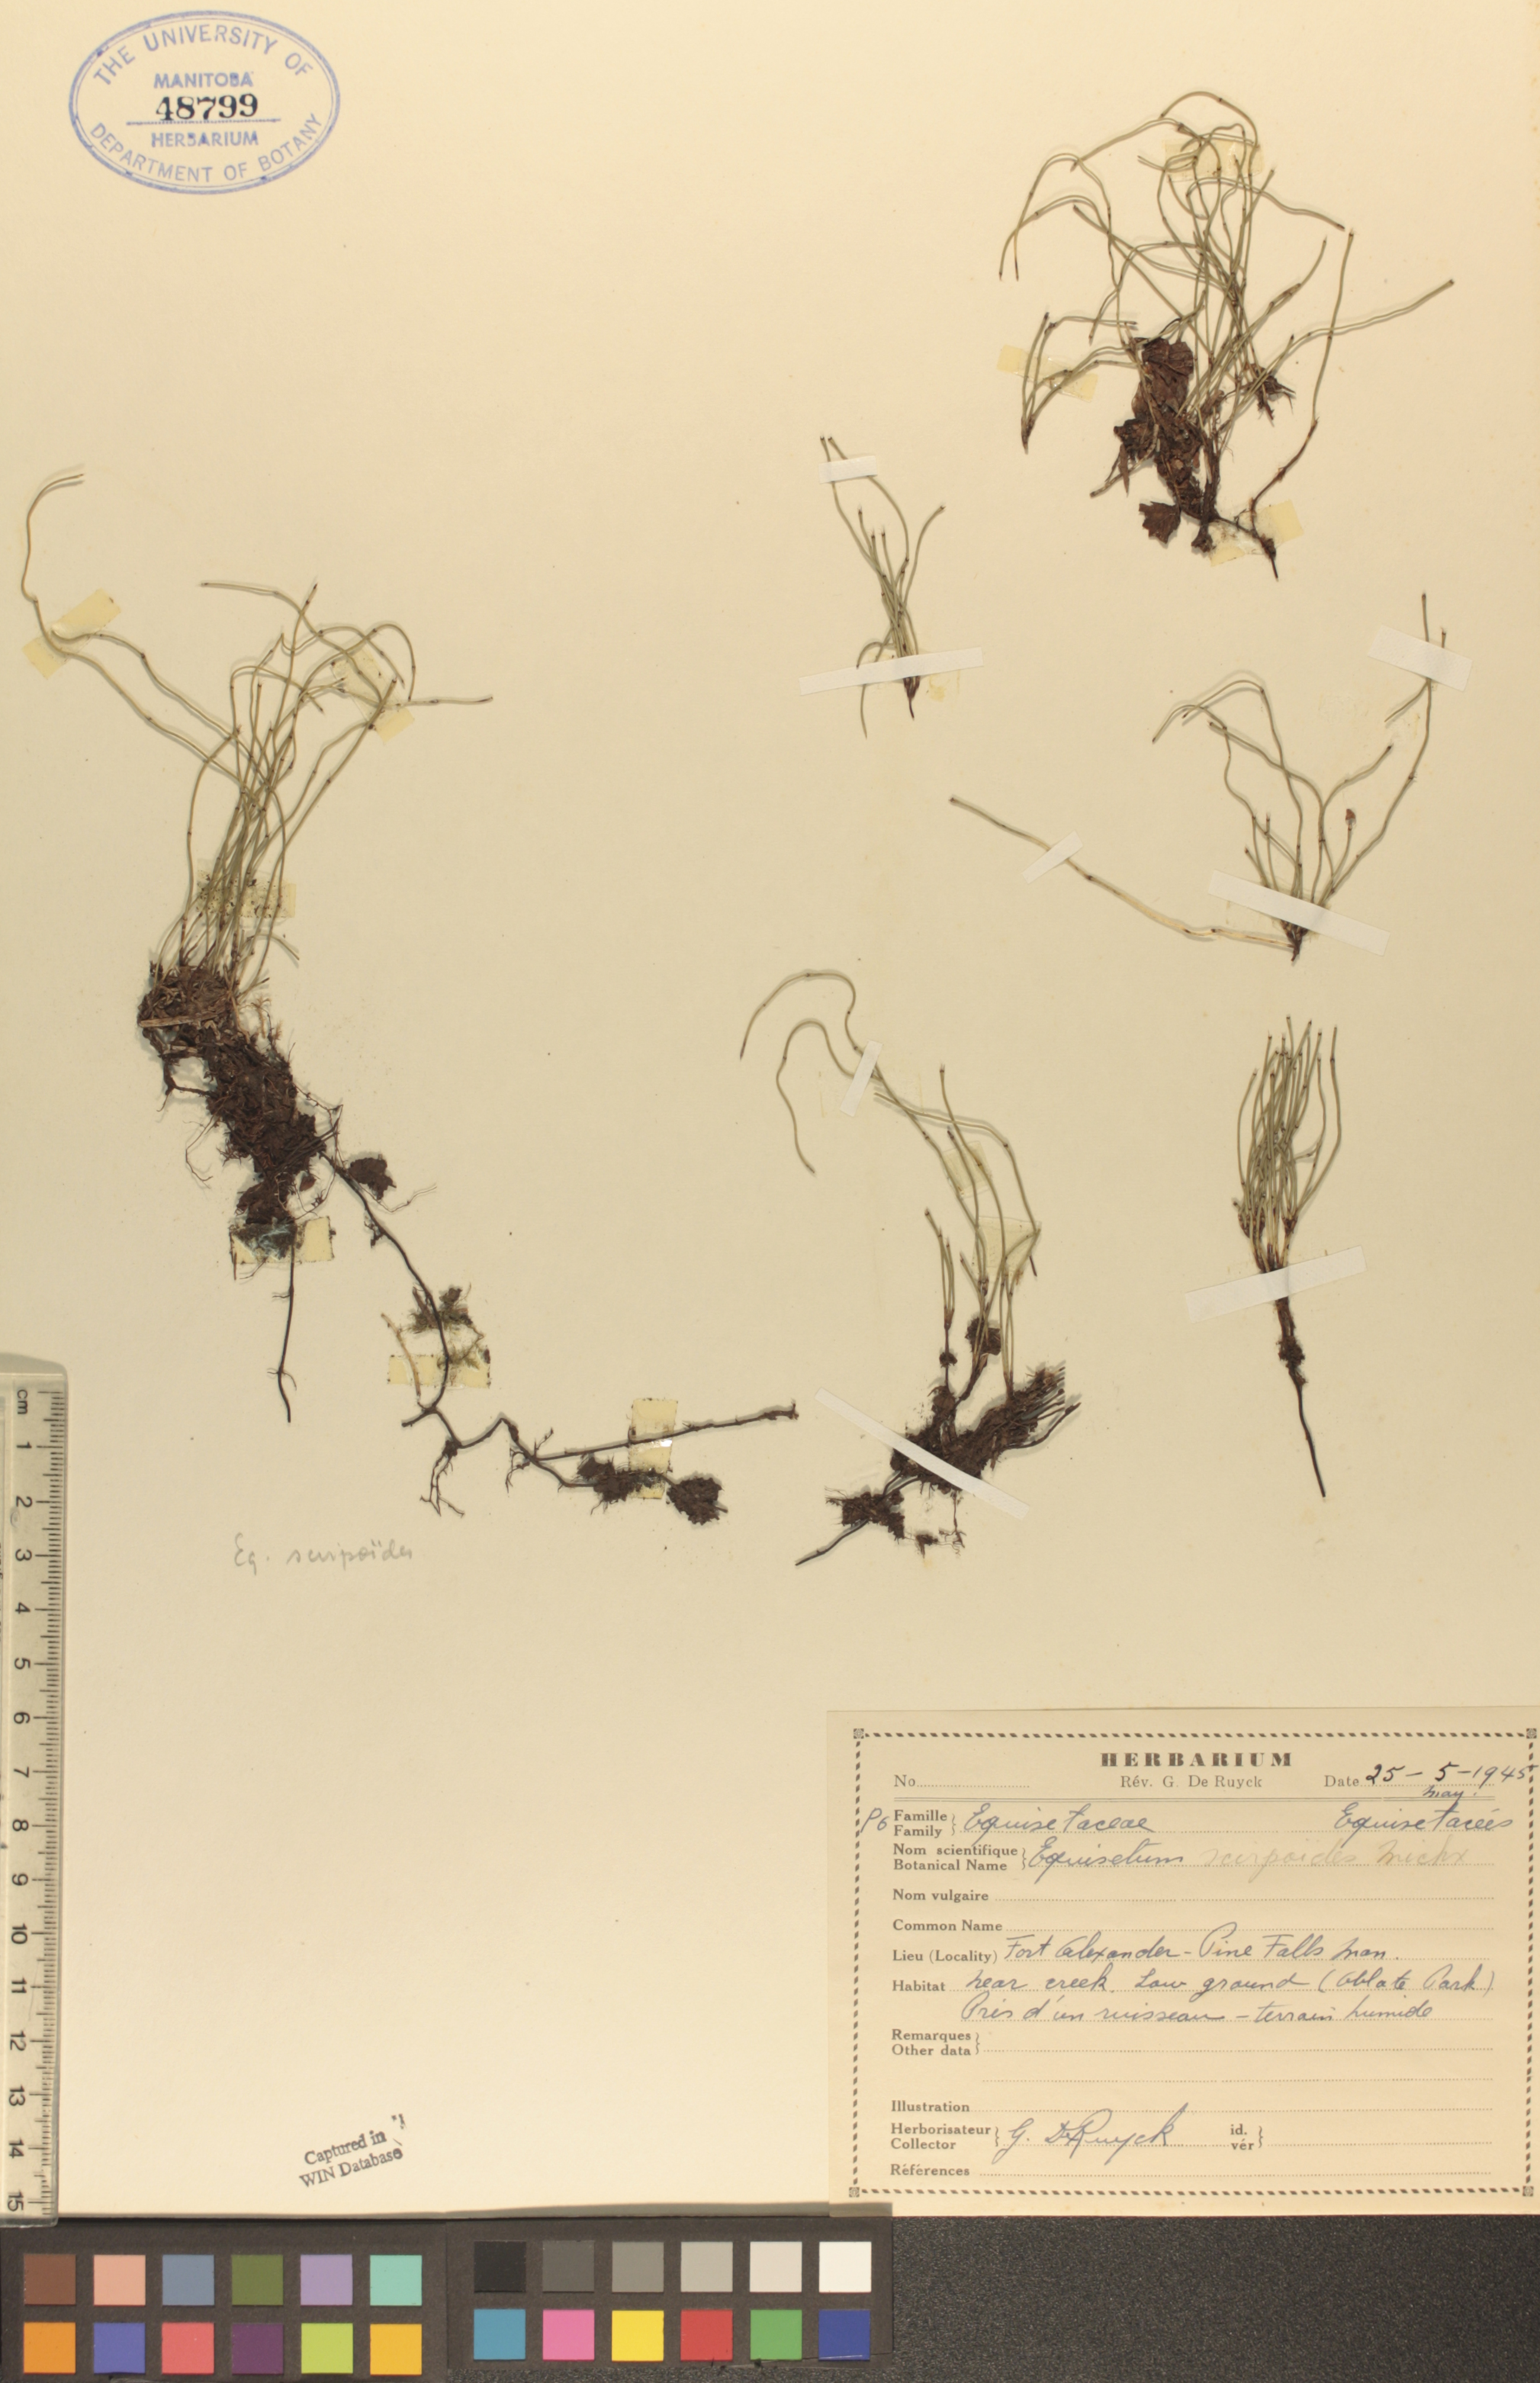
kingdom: Plantae
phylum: Tracheophyta
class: Polypodiopsida
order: Equisetales
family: Equisetaceae
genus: Equisetum
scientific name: Equisetum scirpoides
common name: Delicate horsetail
